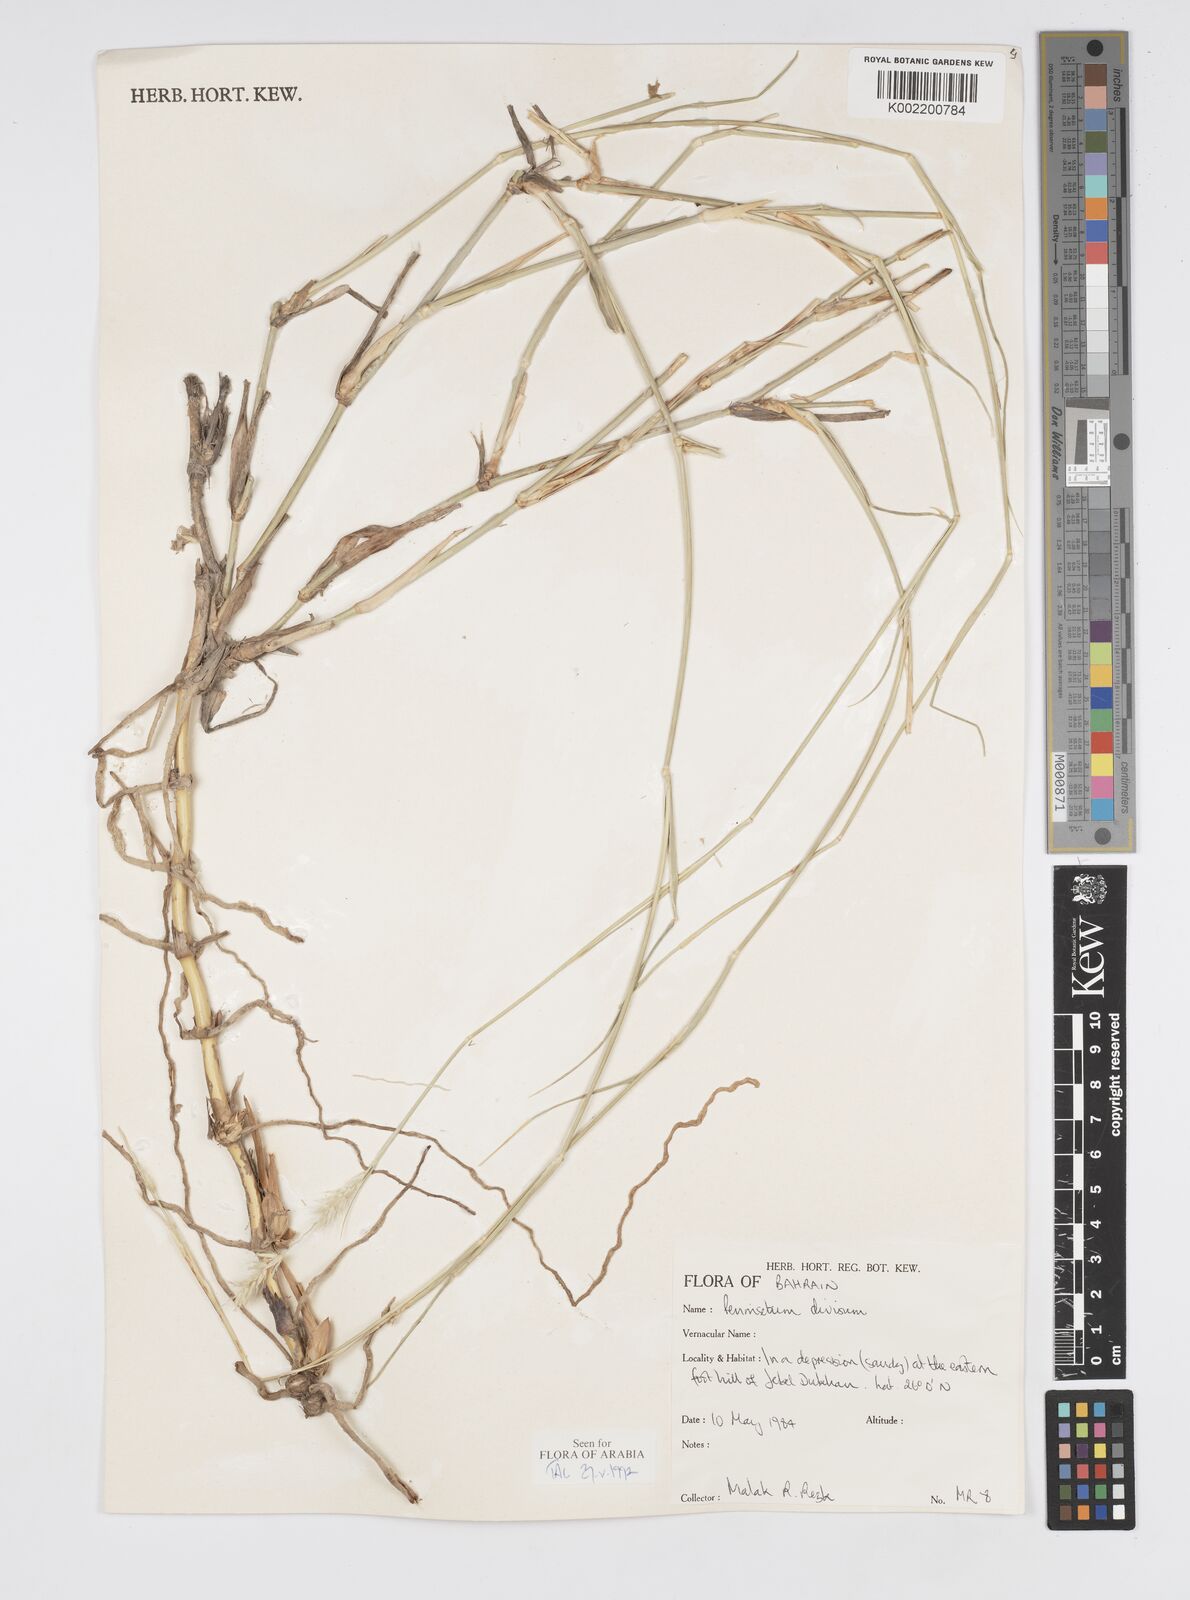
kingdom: Plantae
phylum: Tracheophyta
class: Liliopsida
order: Poales
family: Poaceae
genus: Cenchrus
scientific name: Cenchrus divisus
